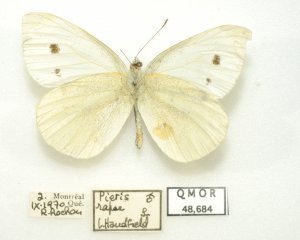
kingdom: Animalia
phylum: Arthropoda
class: Insecta
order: Lepidoptera
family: Pieridae
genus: Pieris
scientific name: Pieris rapae
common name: Cabbage White
